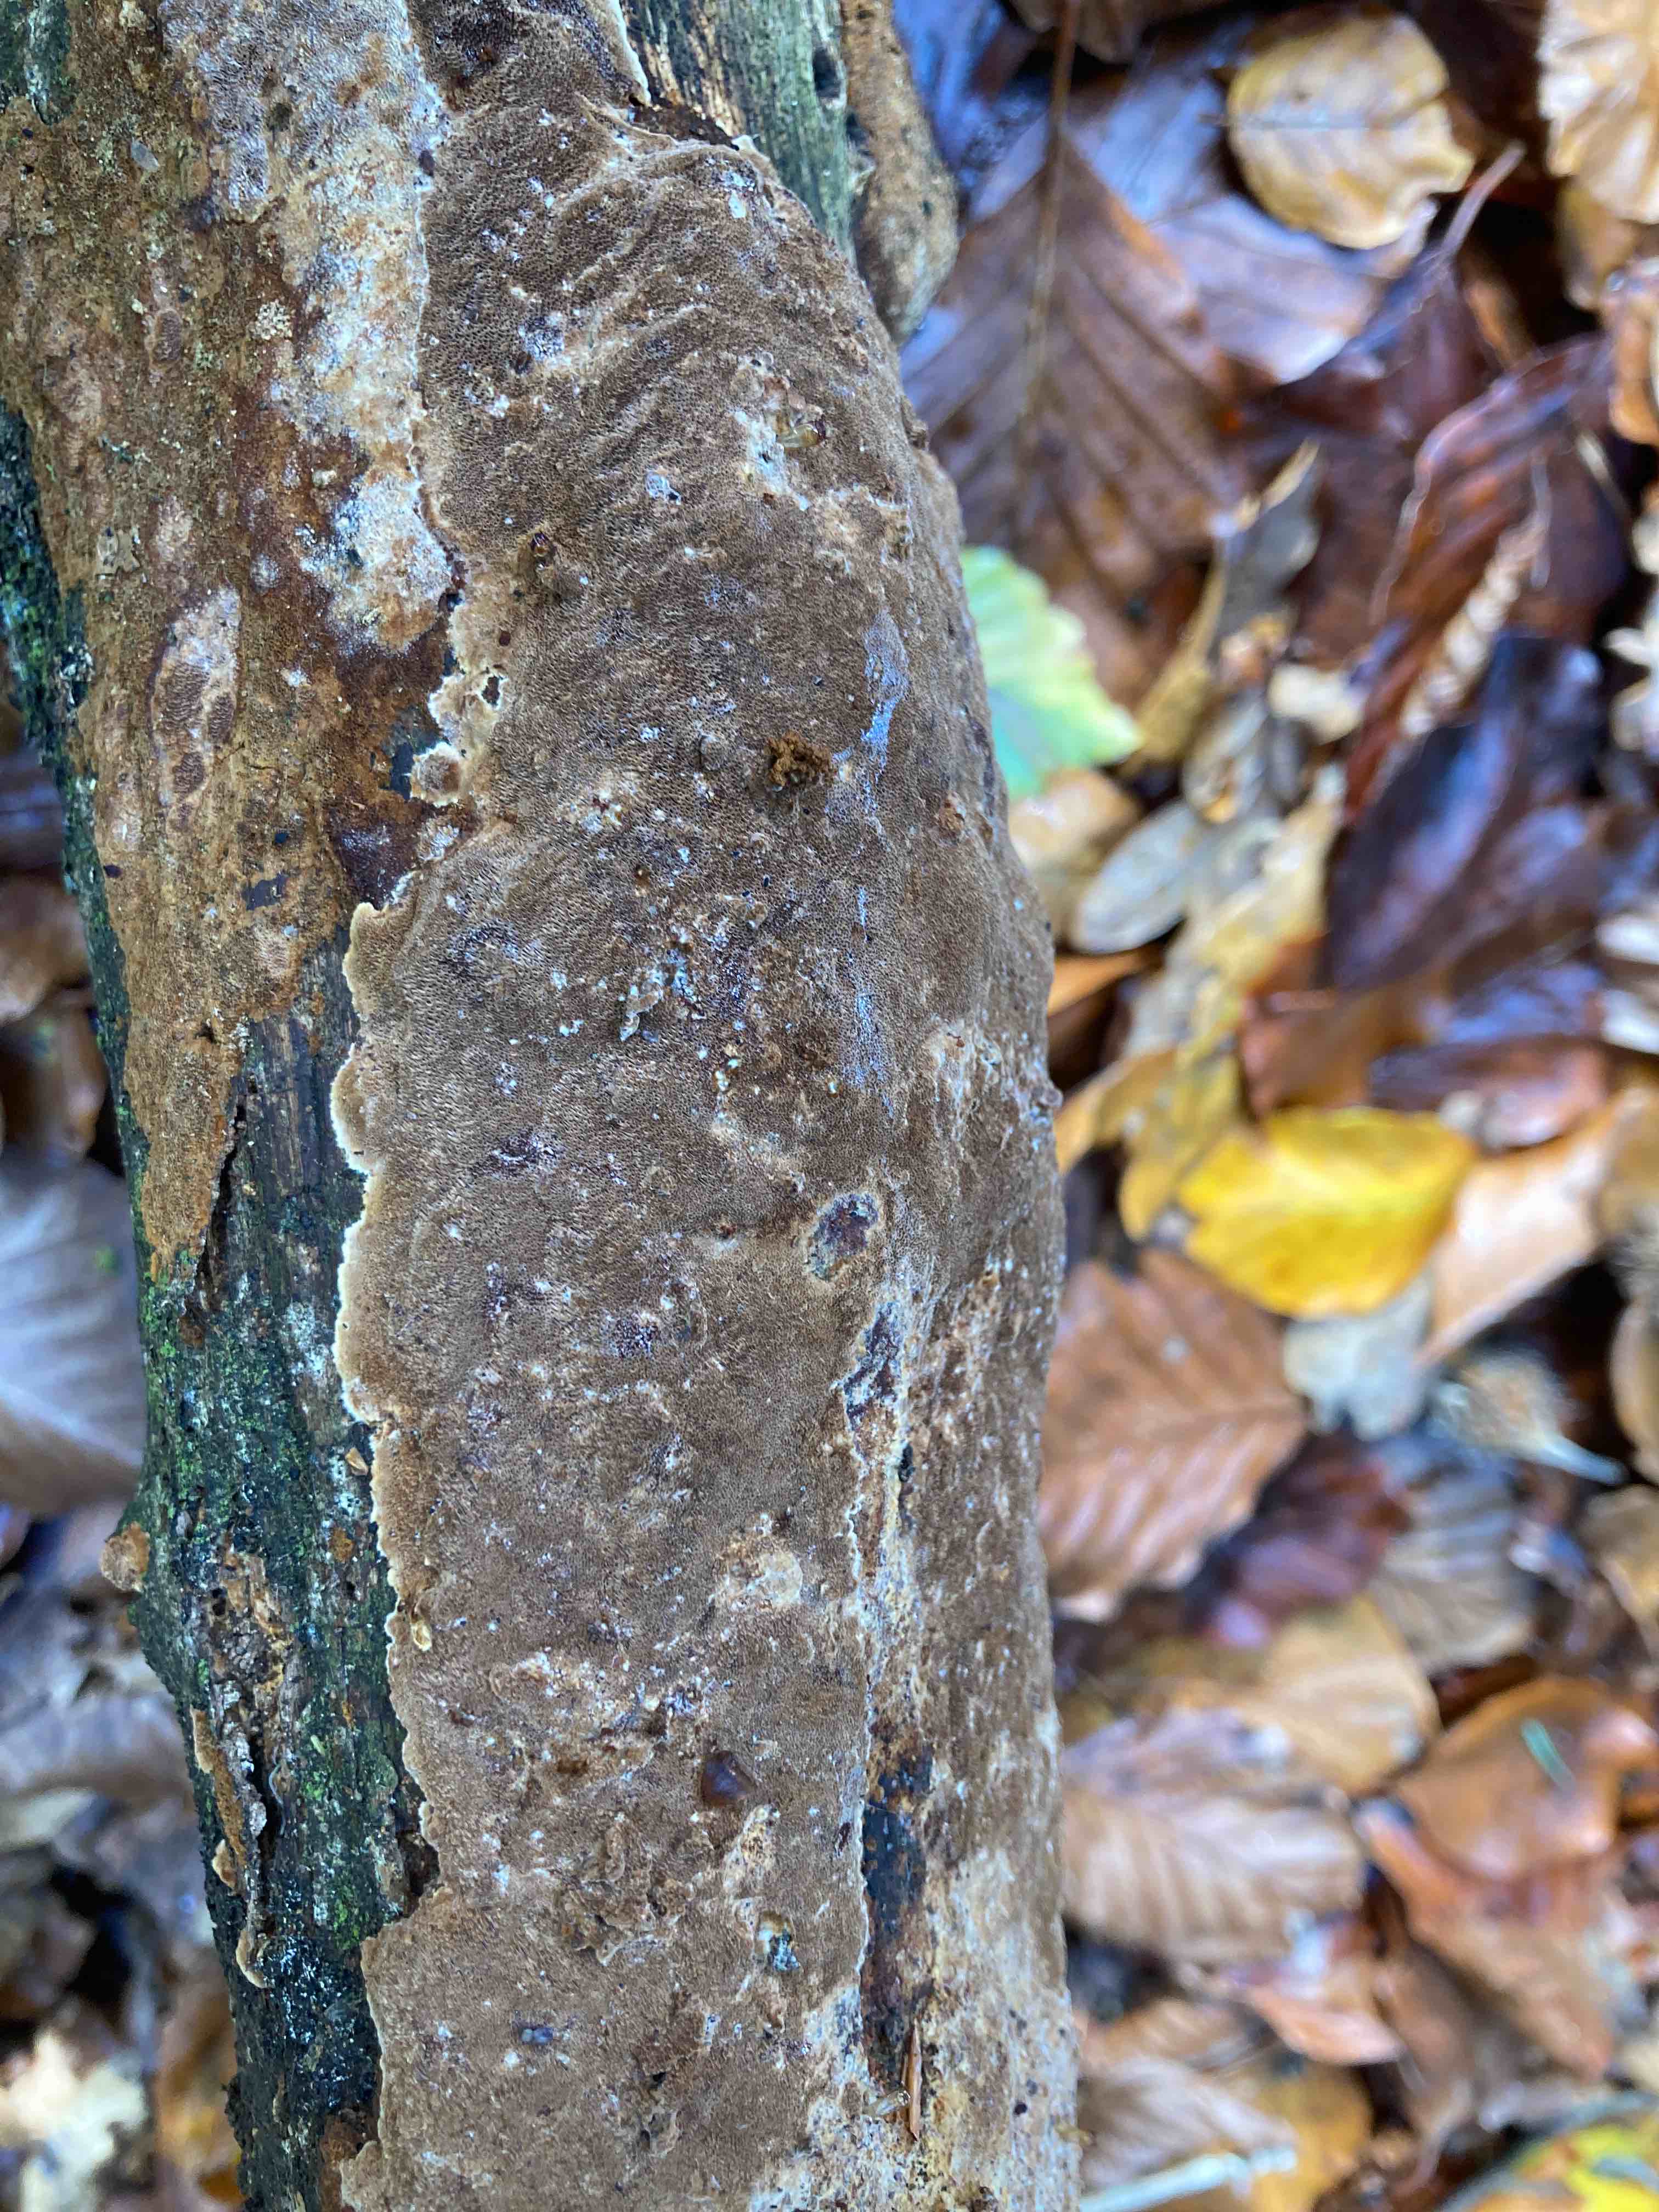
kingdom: Fungi
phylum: Basidiomycota
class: Agaricomycetes
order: Hymenochaetales
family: Hymenochaetaceae
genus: Fuscoporia
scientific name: Fuscoporia ferrea
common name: skorpe-ildporesvamp
